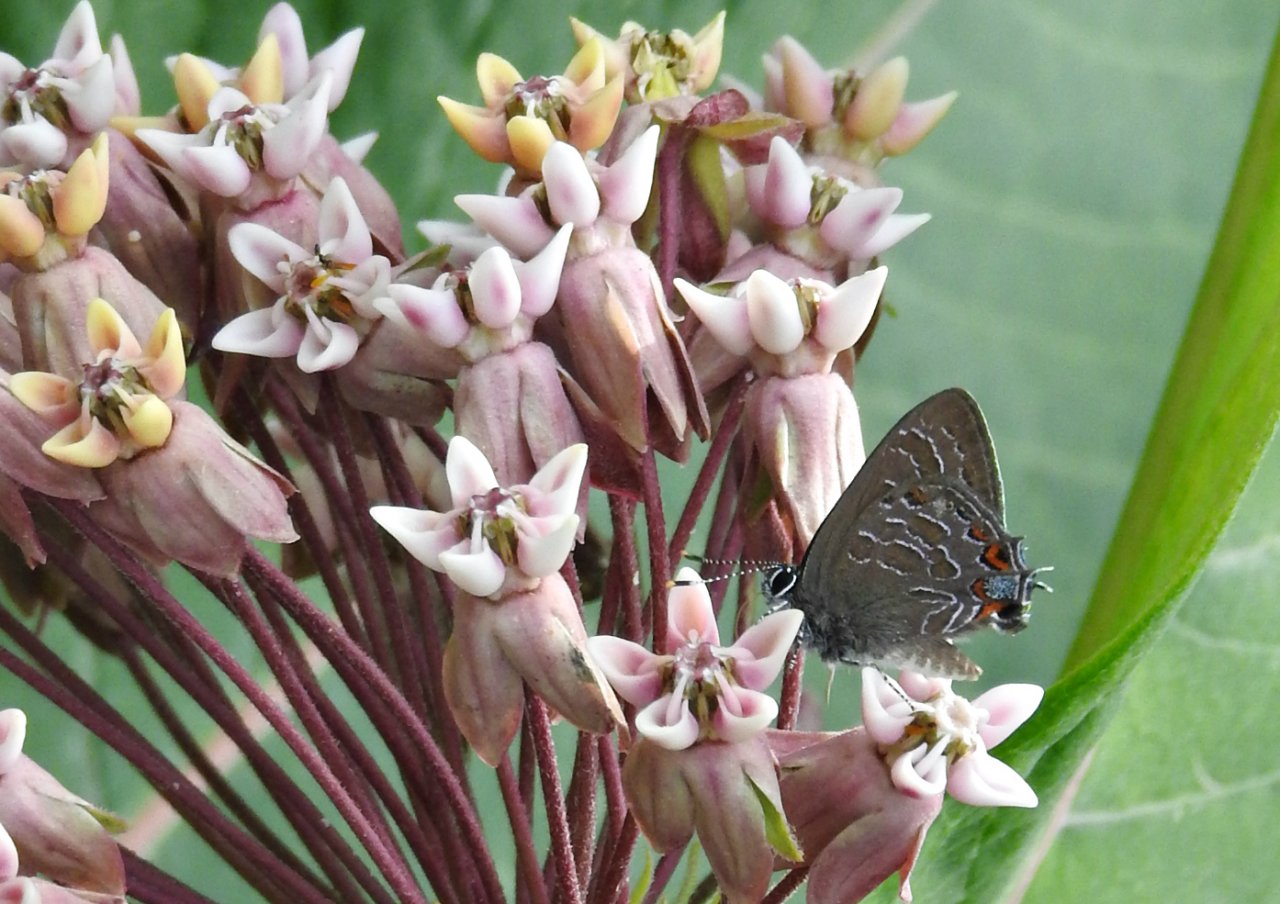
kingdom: Animalia
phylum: Arthropoda
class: Insecta
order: Lepidoptera
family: Lycaenidae
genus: Satyrium
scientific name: Satyrium liparops
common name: Striped Hairstreak
